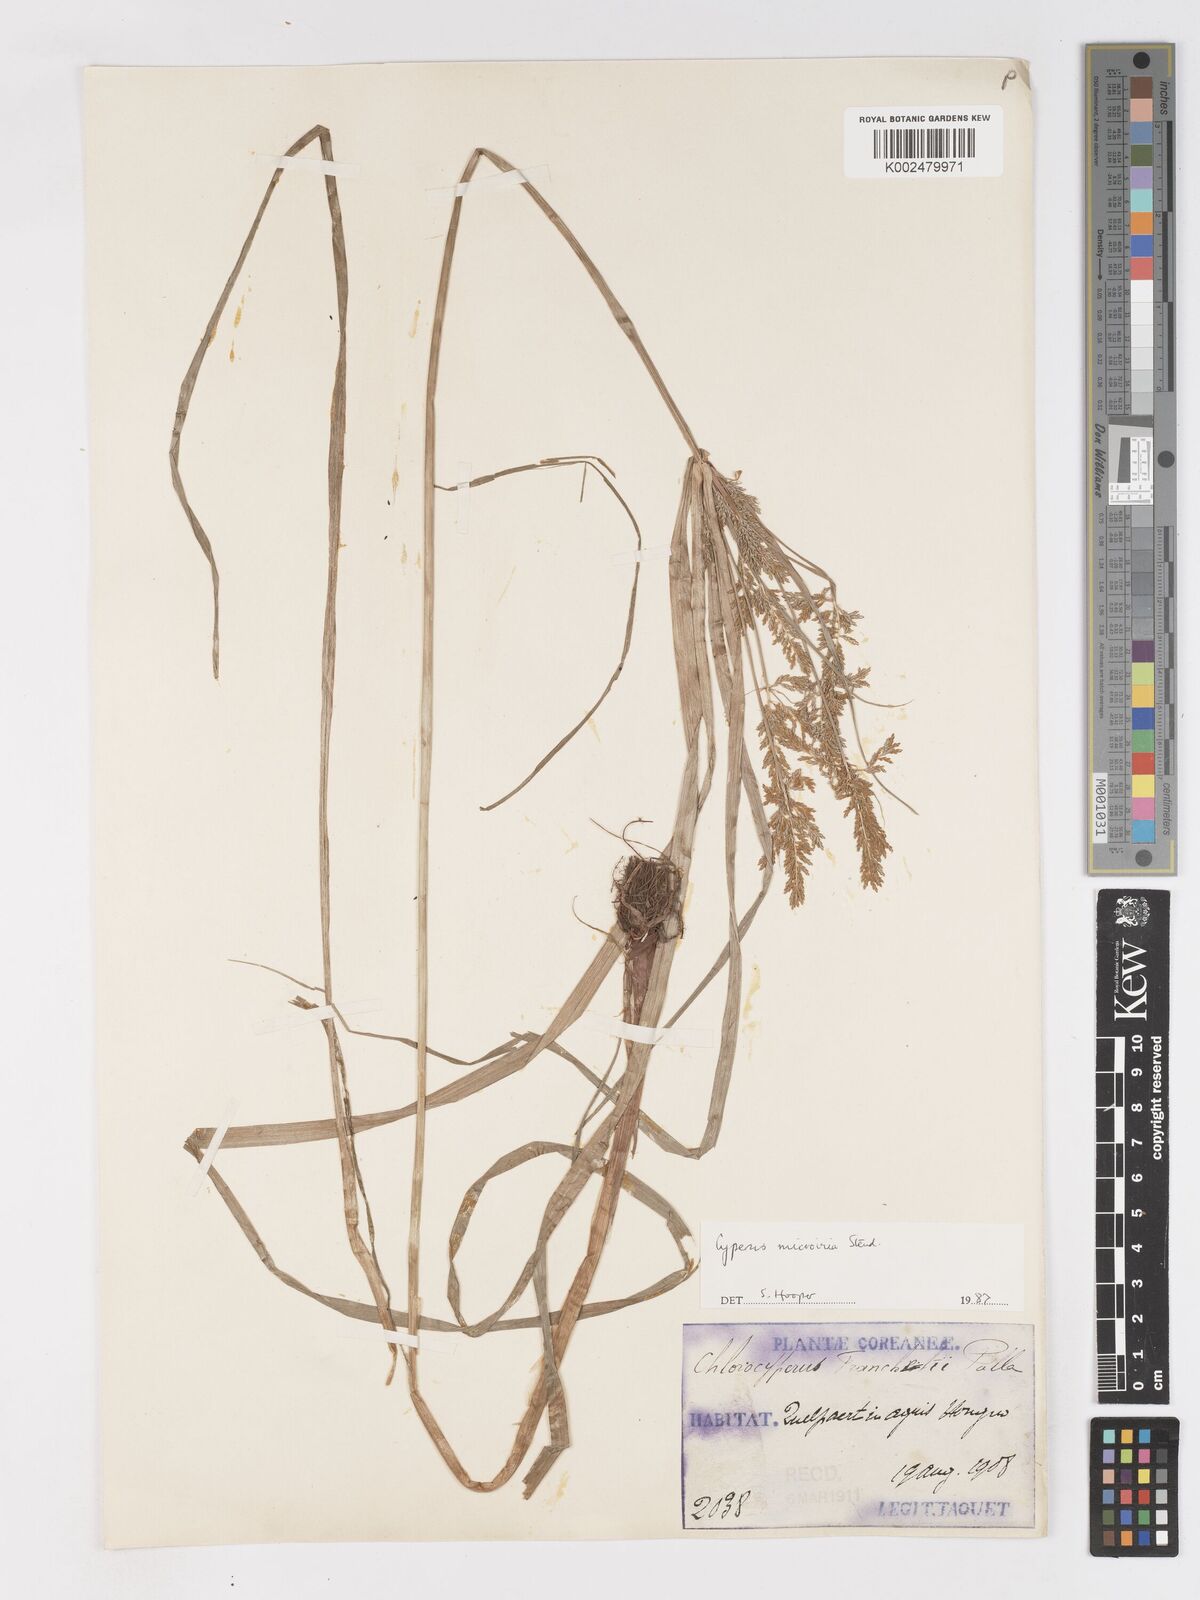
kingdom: Plantae
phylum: Tracheophyta
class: Liliopsida
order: Poales
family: Cyperaceae
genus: Cyperus
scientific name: Cyperus microiria
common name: Asian flatsedge
